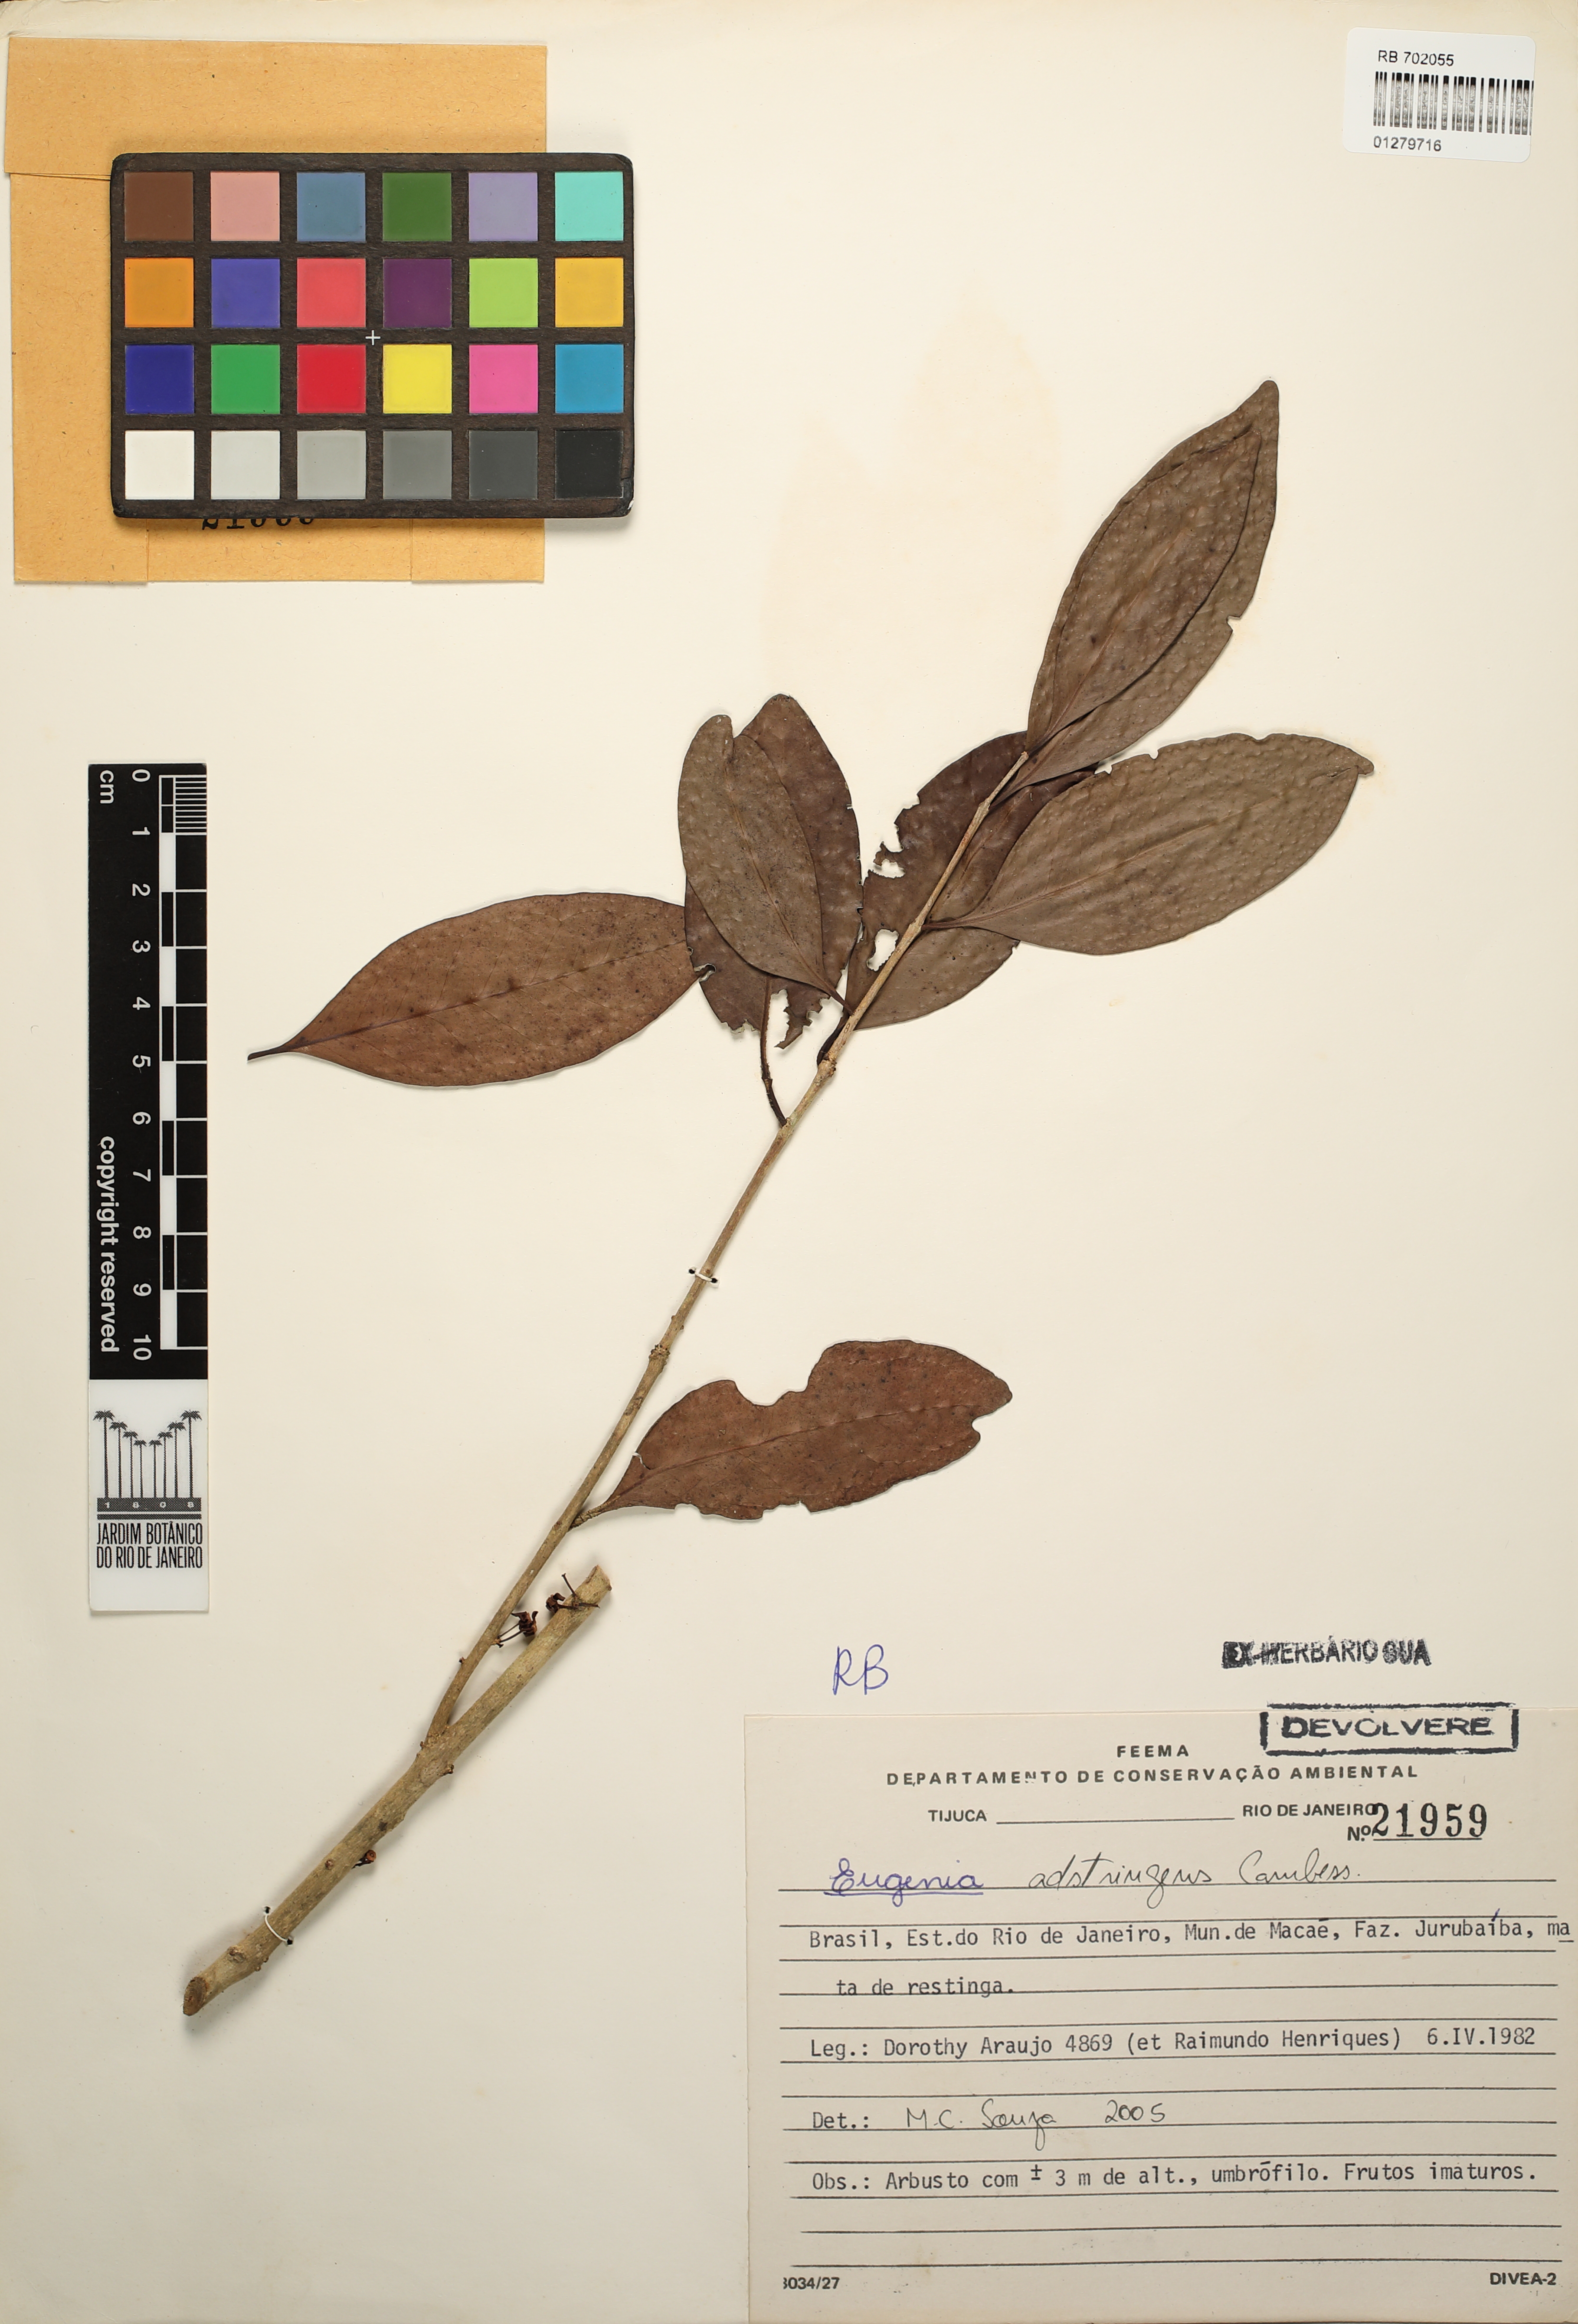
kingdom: Plantae
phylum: Tracheophyta
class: Magnoliopsida
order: Myrtales
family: Myrtaceae
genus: Eugenia
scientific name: Eugenia punicifolia
